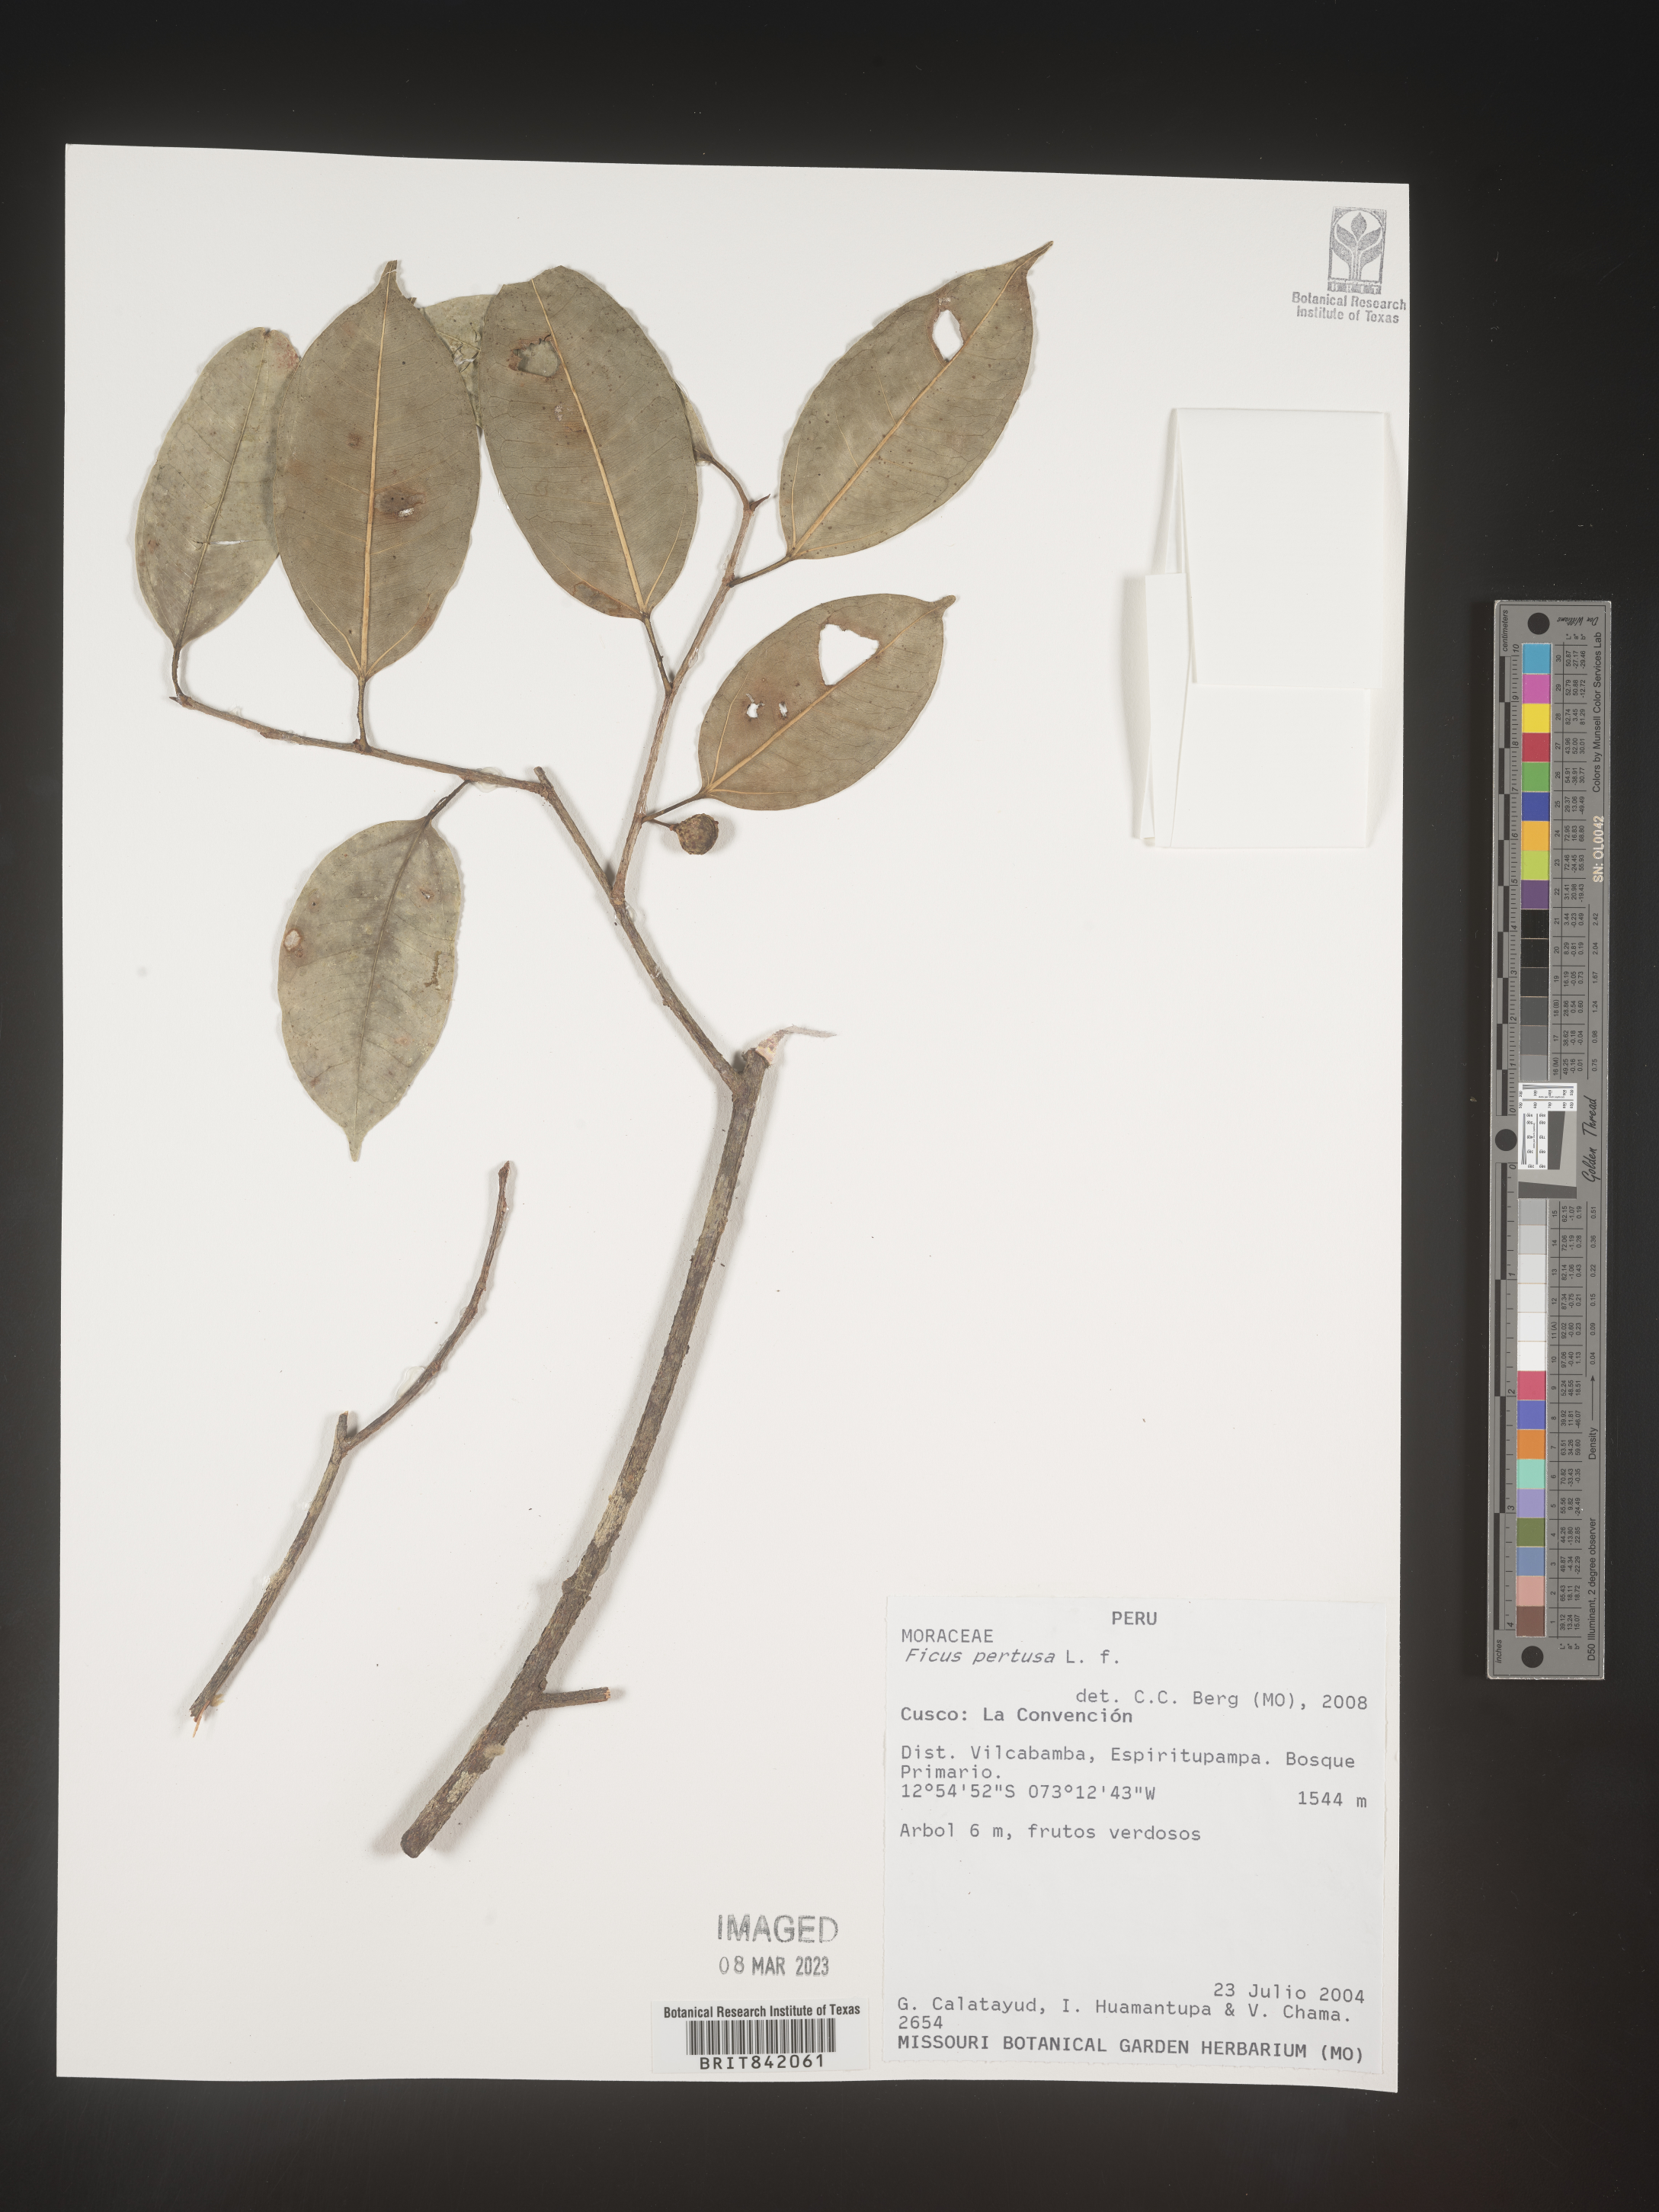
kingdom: Plantae
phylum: Tracheophyta
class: Magnoliopsida
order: Rosales
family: Moraceae
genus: Ficus
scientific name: Ficus pertusa
